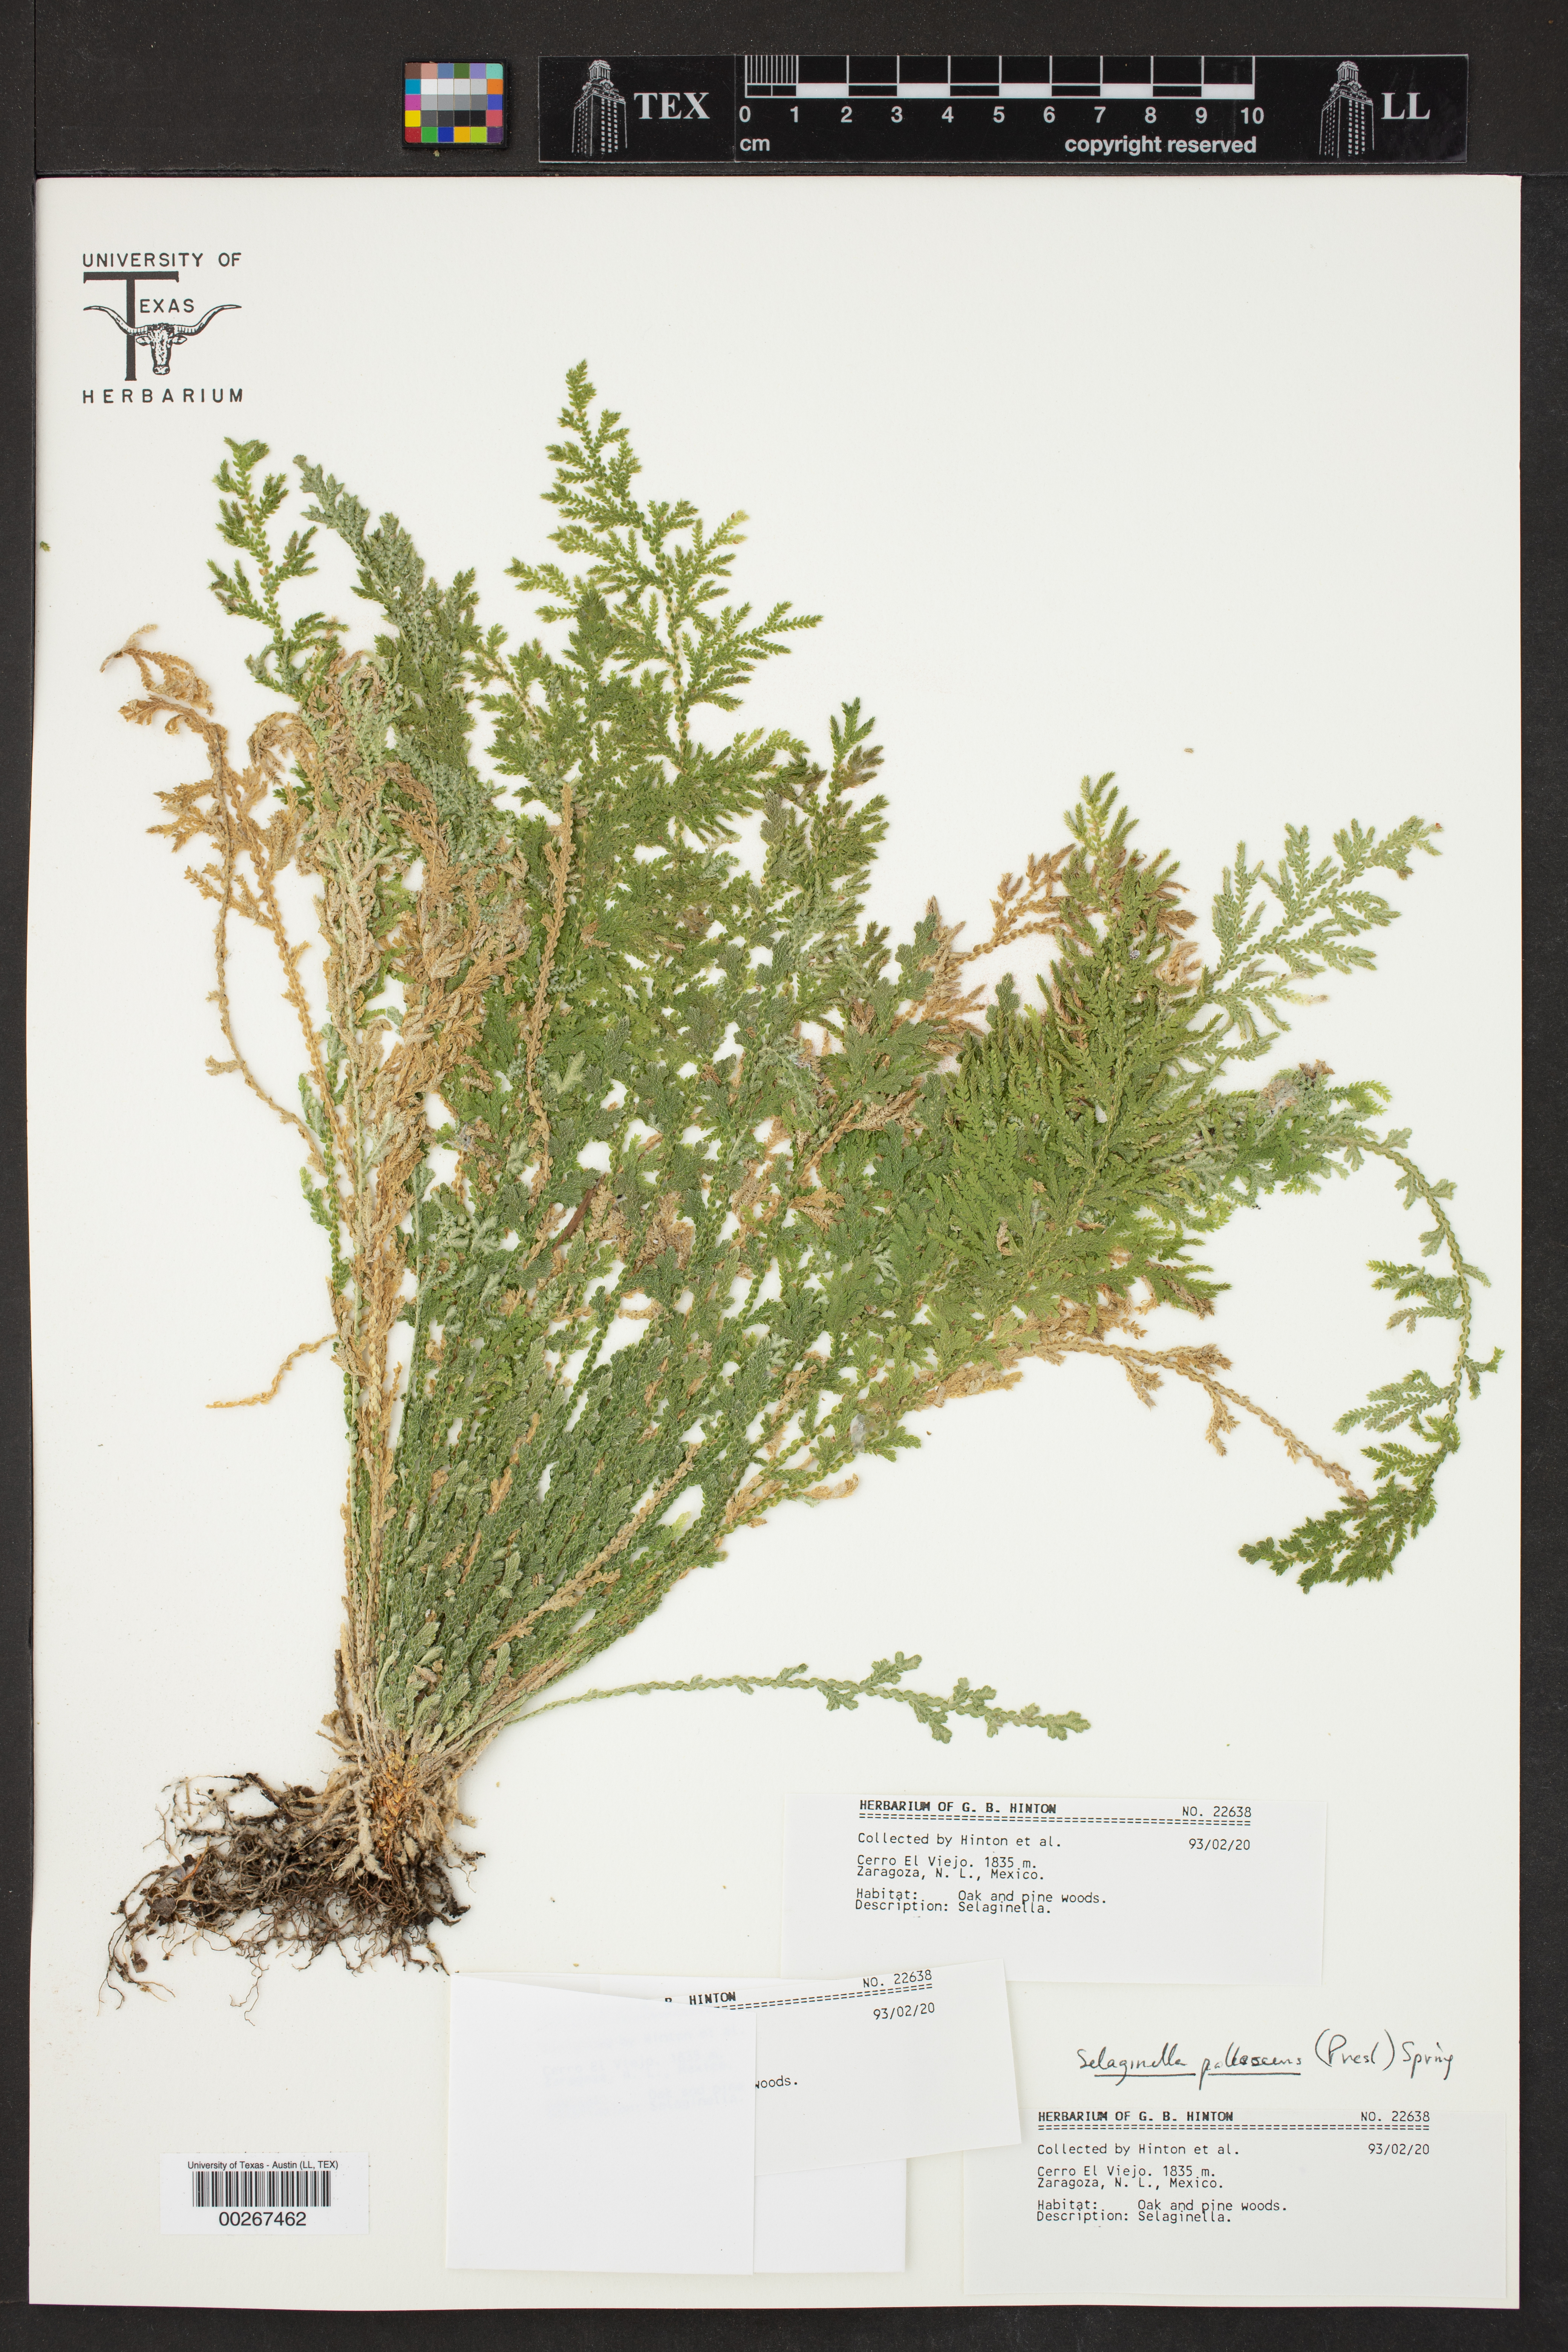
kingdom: Plantae
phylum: Tracheophyta
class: Lycopodiopsida
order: Selaginellales
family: Selaginellaceae
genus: Selaginella
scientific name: Selaginella pallescens
